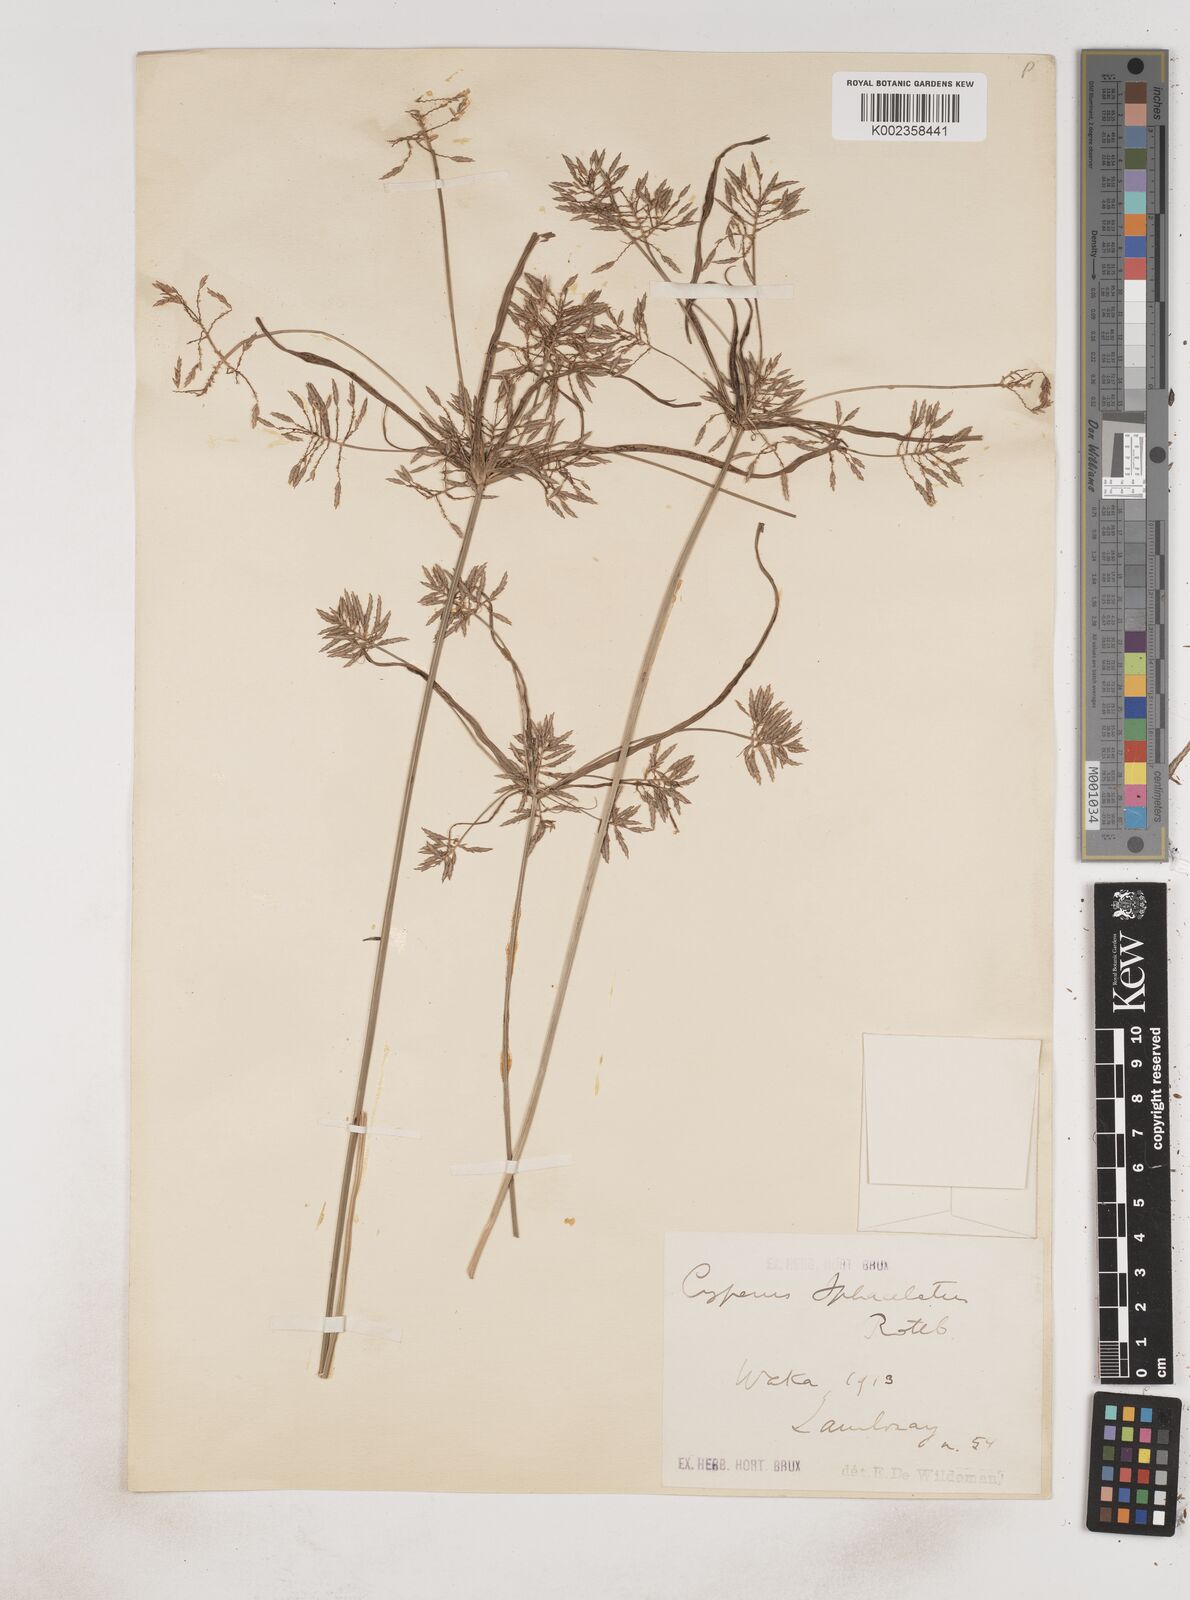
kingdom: Plantae
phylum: Tracheophyta
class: Liliopsida
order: Poales
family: Cyperaceae
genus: Cyperus
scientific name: Cyperus sphacelatus
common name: Roadside flatsedge
